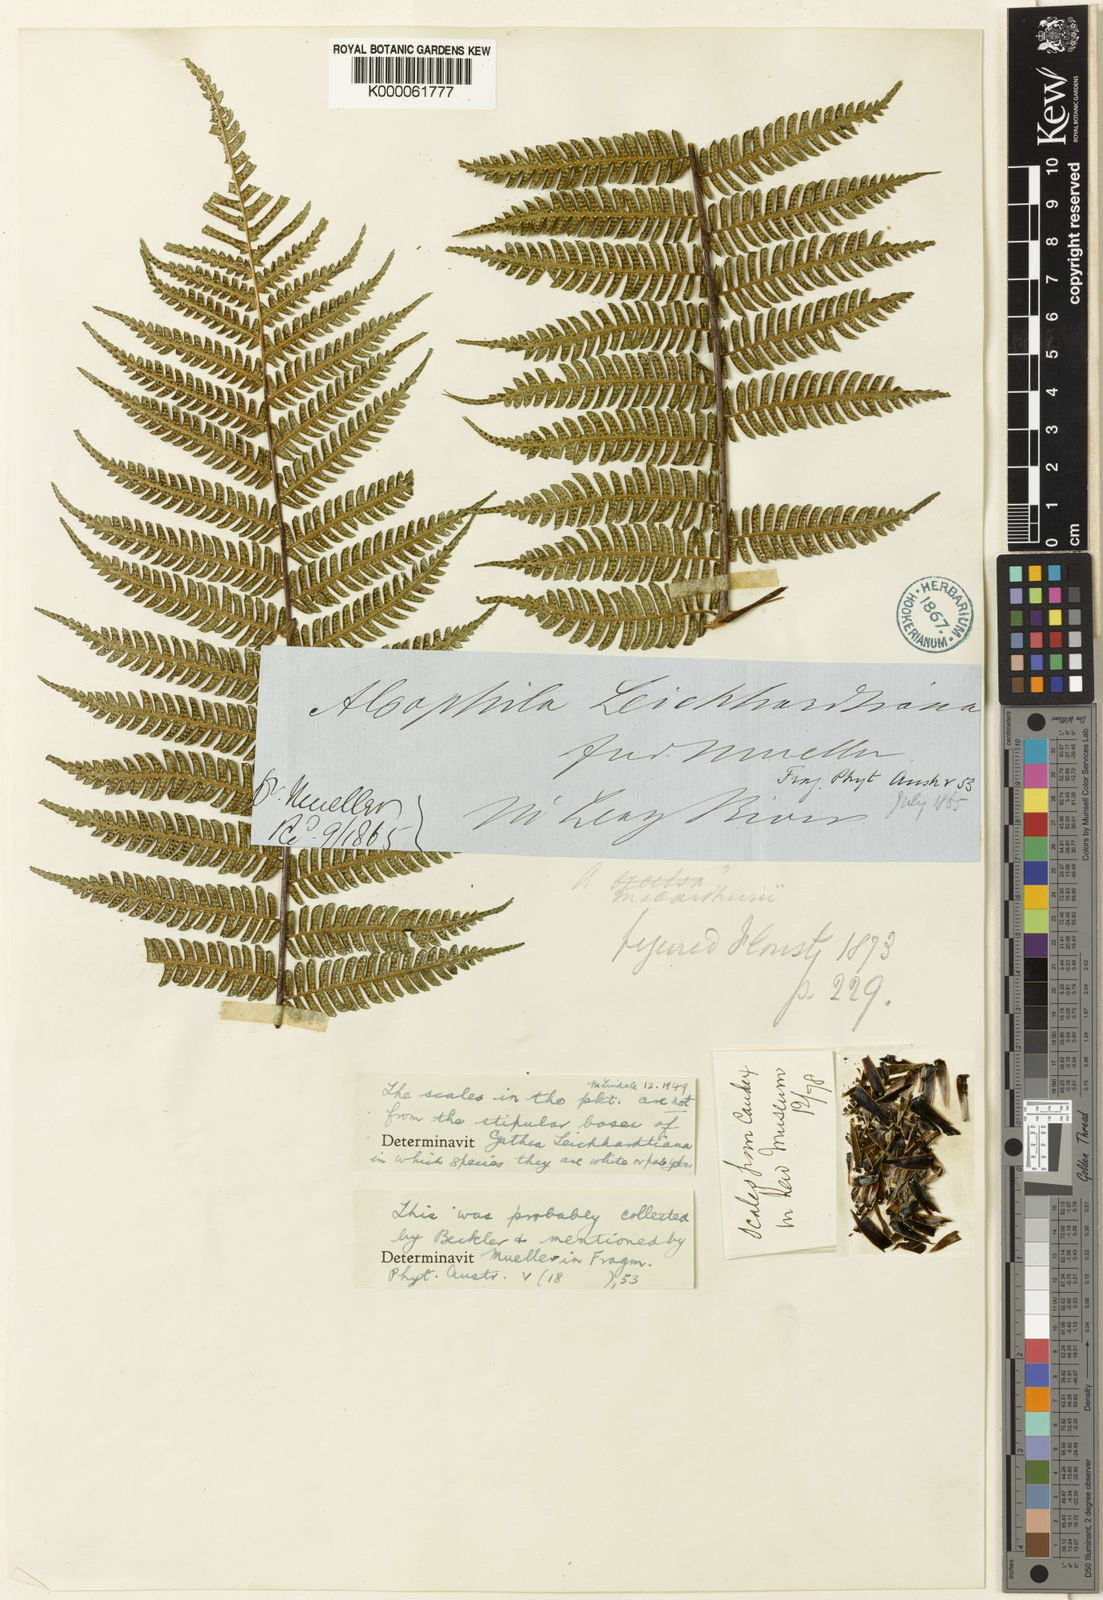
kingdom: Plantae
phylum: Tracheophyta
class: Polypodiopsida
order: Cyatheales
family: Cyatheaceae
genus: Alsophila
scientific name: Alsophila leichhardtiana
